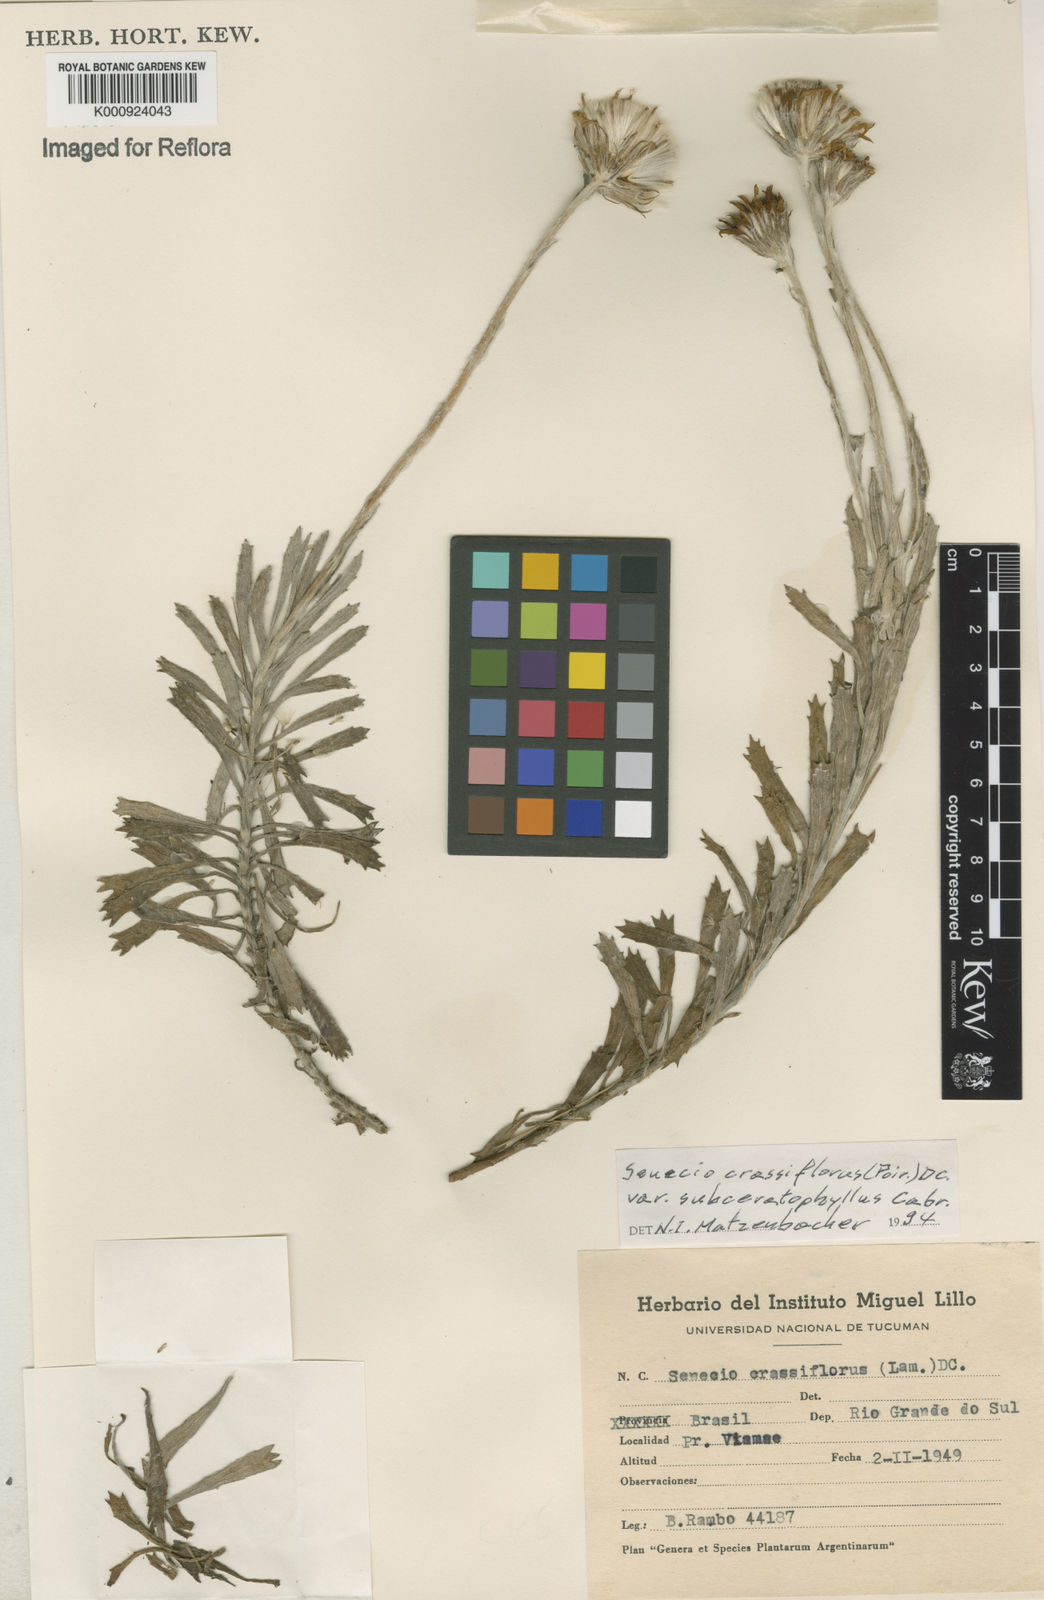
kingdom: Plantae
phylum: Tracheophyta
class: Magnoliopsida
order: Asterales
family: Asteraceae
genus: Senecio
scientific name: Senecio crassiflorus
